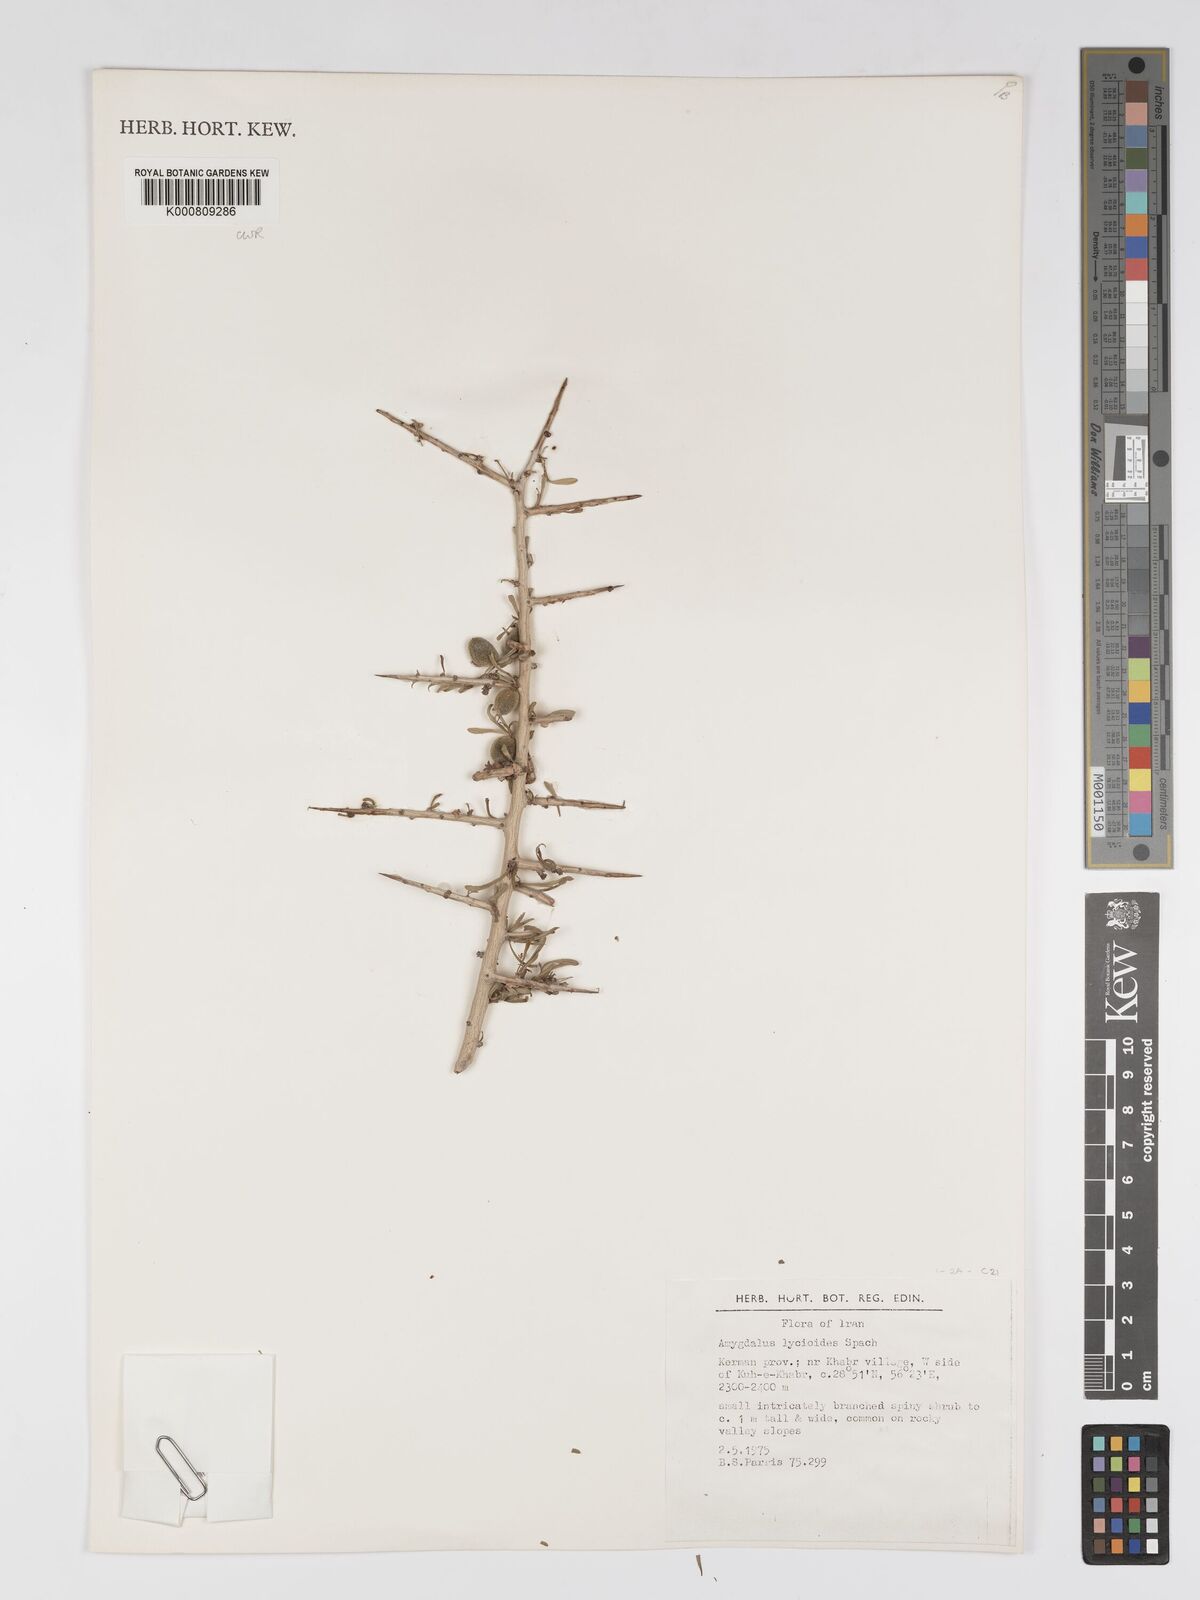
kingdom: Plantae
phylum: Tracheophyta
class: Magnoliopsida
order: Rosales
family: Rosaceae
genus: Prunus
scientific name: Prunus lycioides
